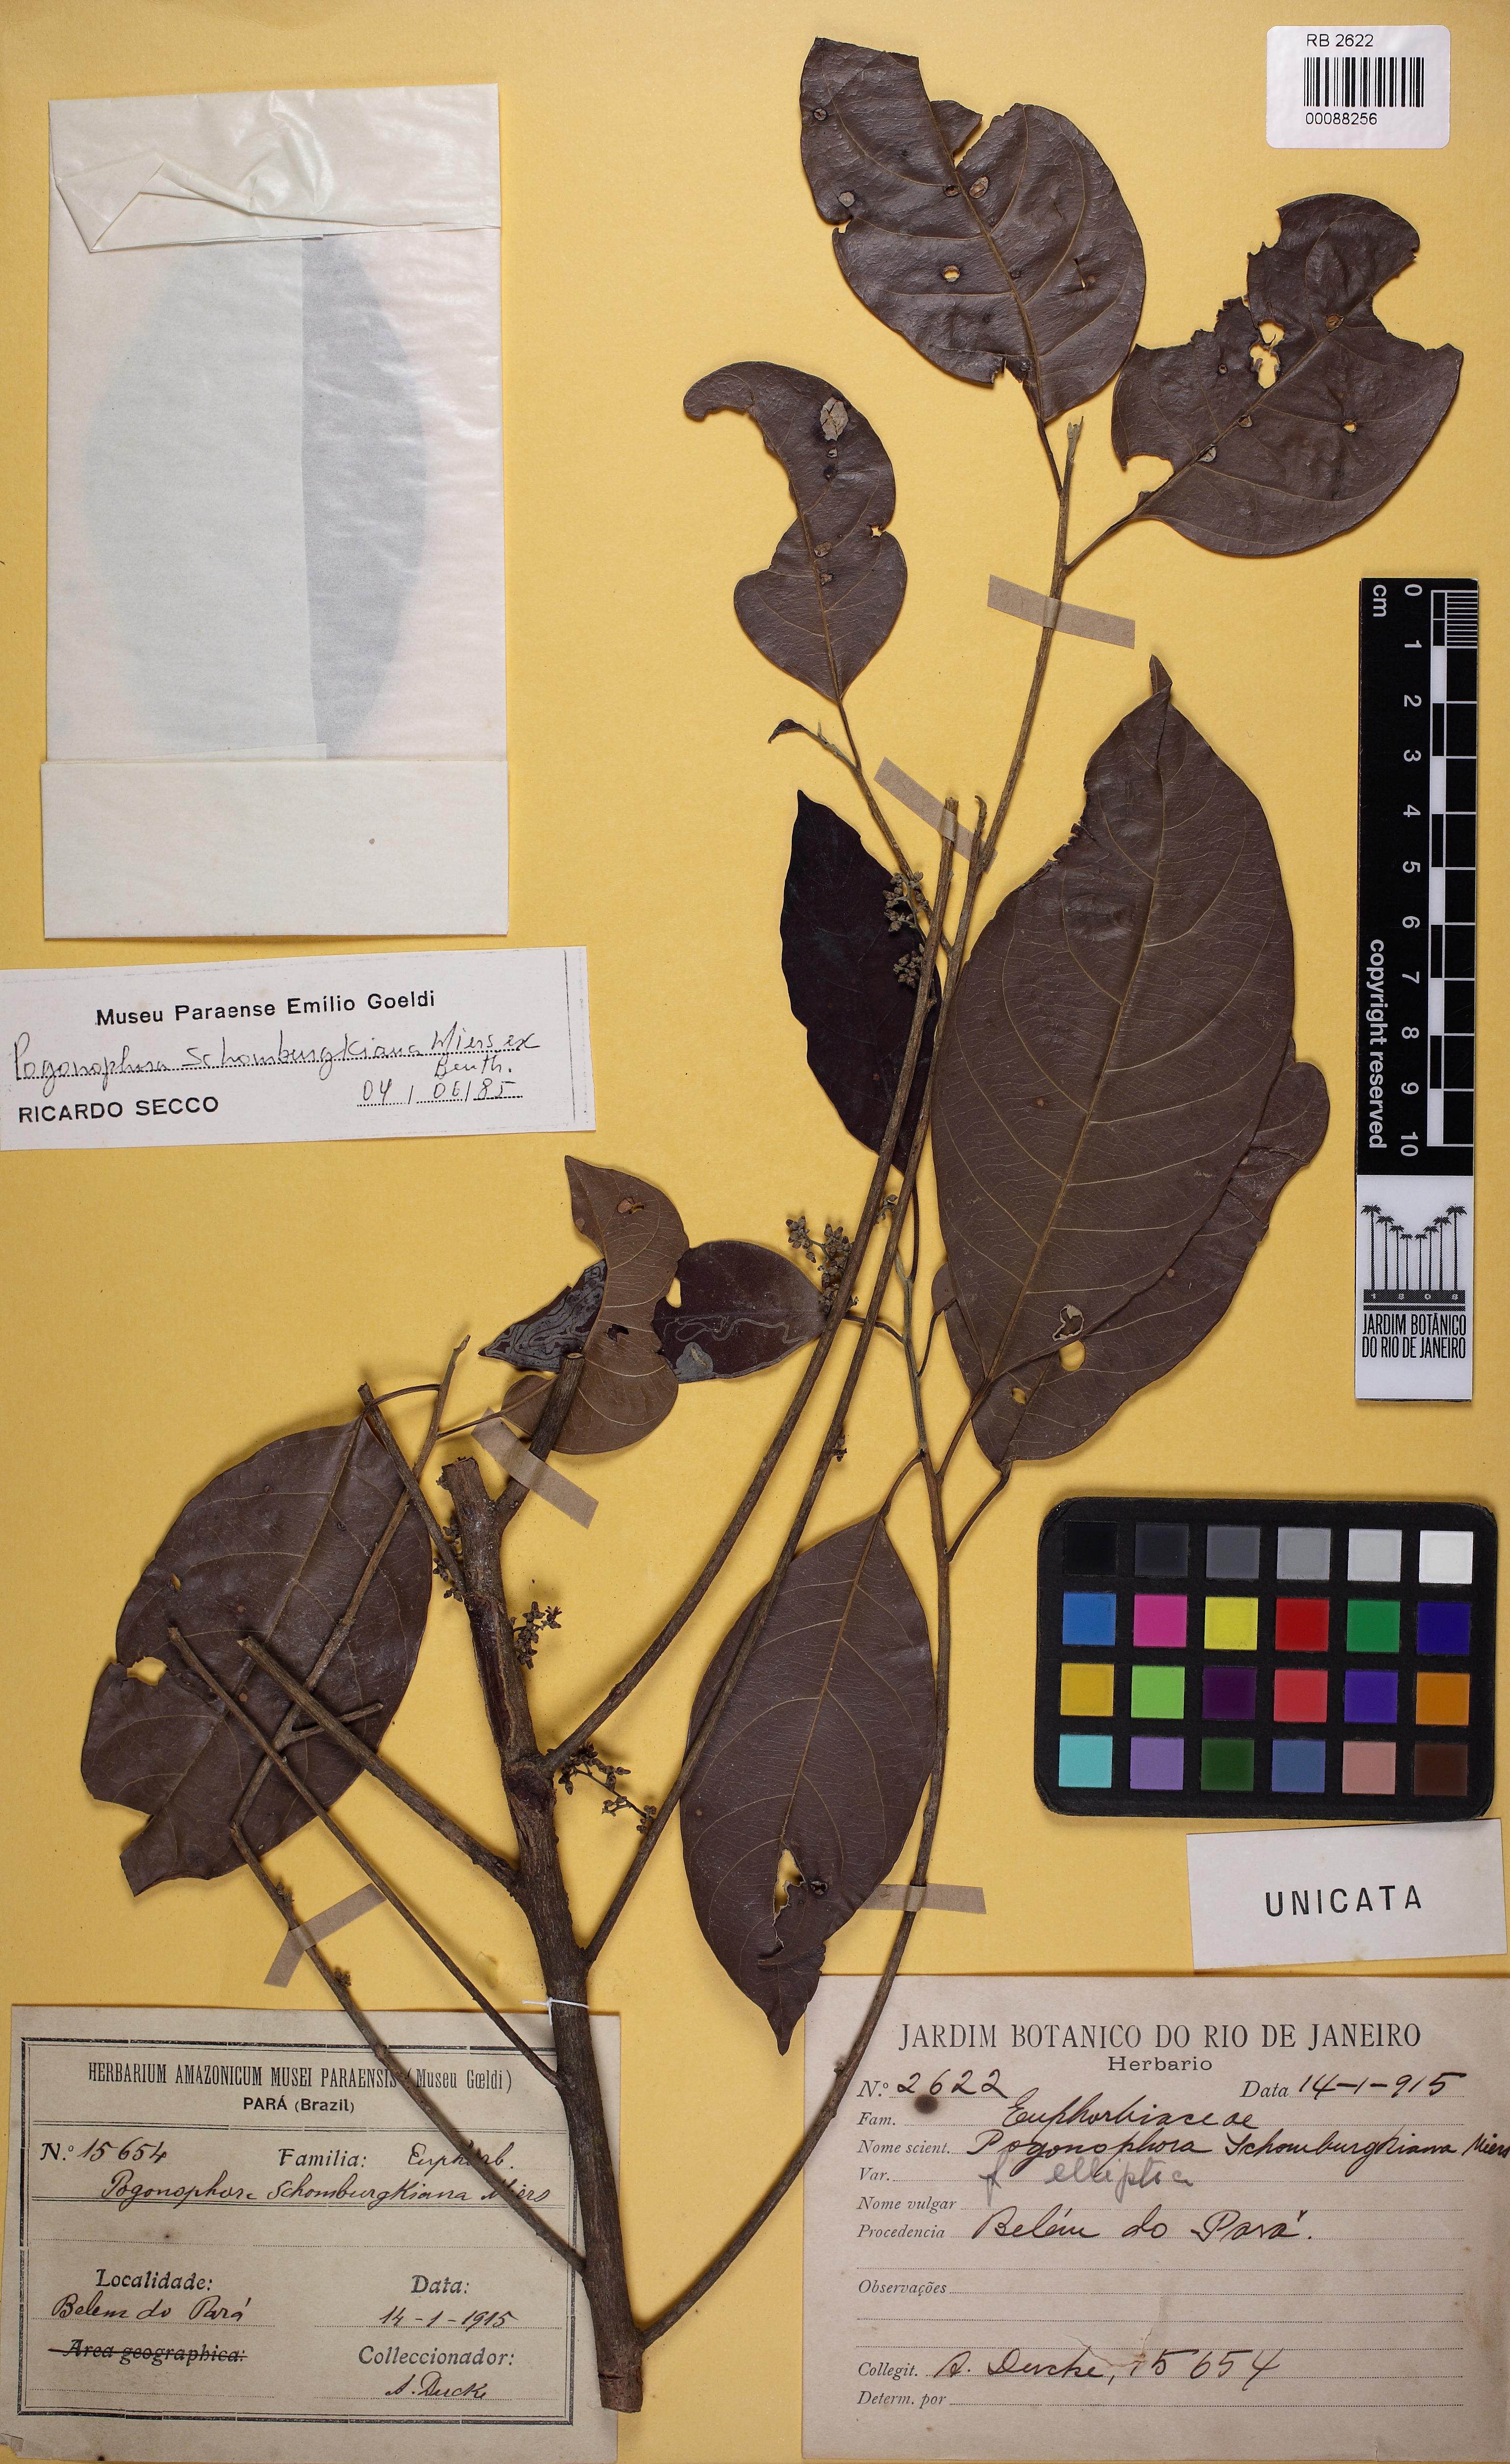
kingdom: Plantae
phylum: Tracheophyta
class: Magnoliopsida
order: Malpighiales
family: Peraceae
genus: Pogonophora
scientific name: Pogonophora schomburgkiana
